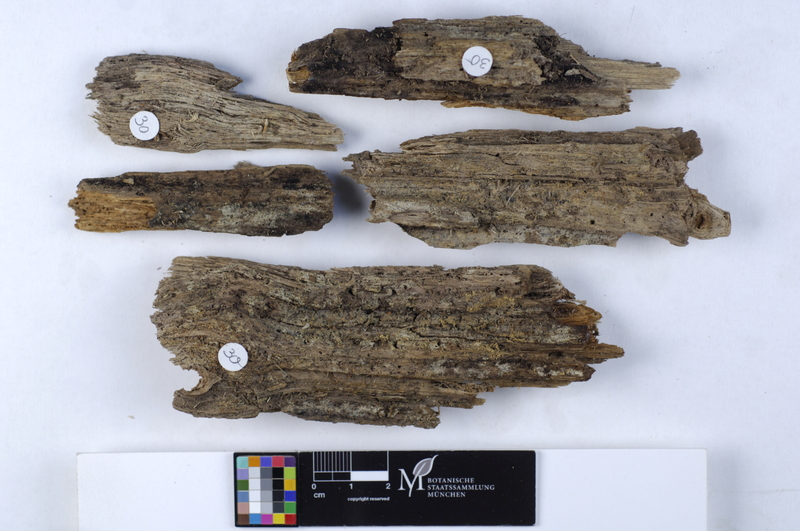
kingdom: Fungi
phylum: Basidiomycota
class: Agaricomycetes
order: Cantharellales
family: Botryobasidiaceae
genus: Botryobasidium
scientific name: Botryobasidium candicans
